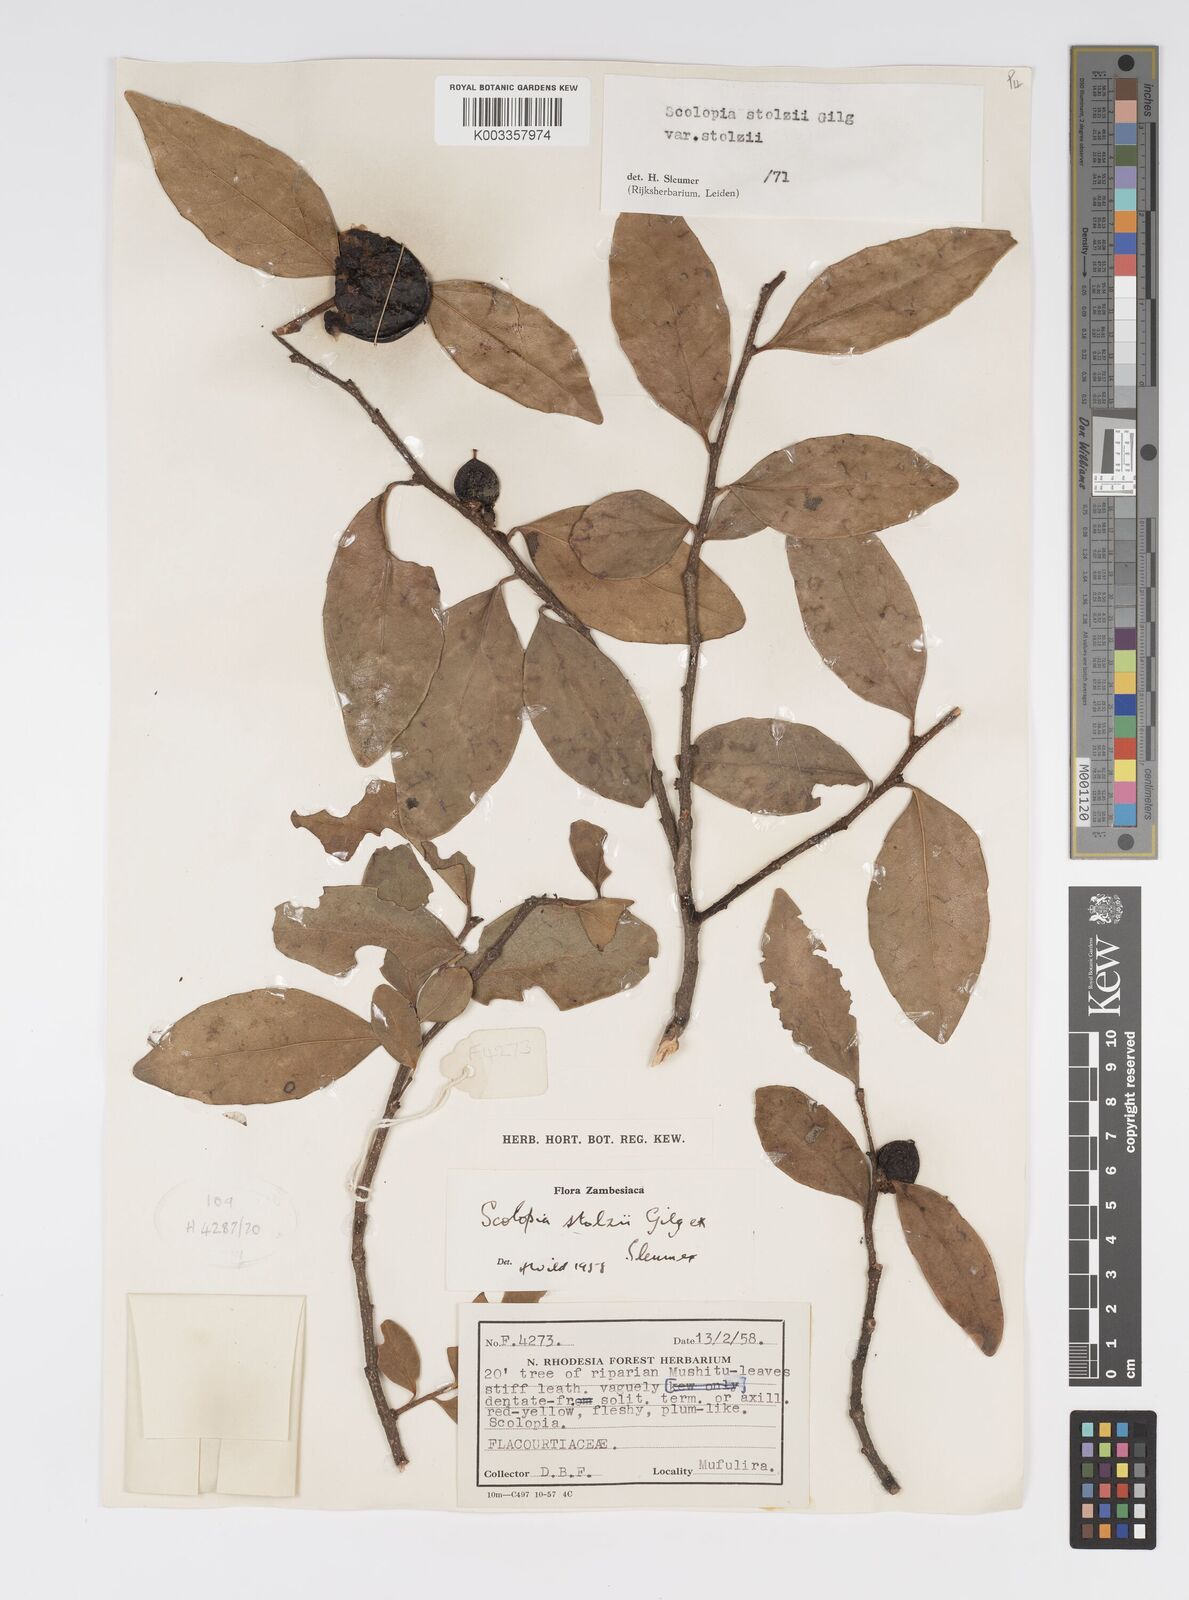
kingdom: Plantae
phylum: Tracheophyta
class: Magnoliopsida
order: Malpighiales
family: Salicaceae
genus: Scolopia
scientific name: Scolopia stolzii
